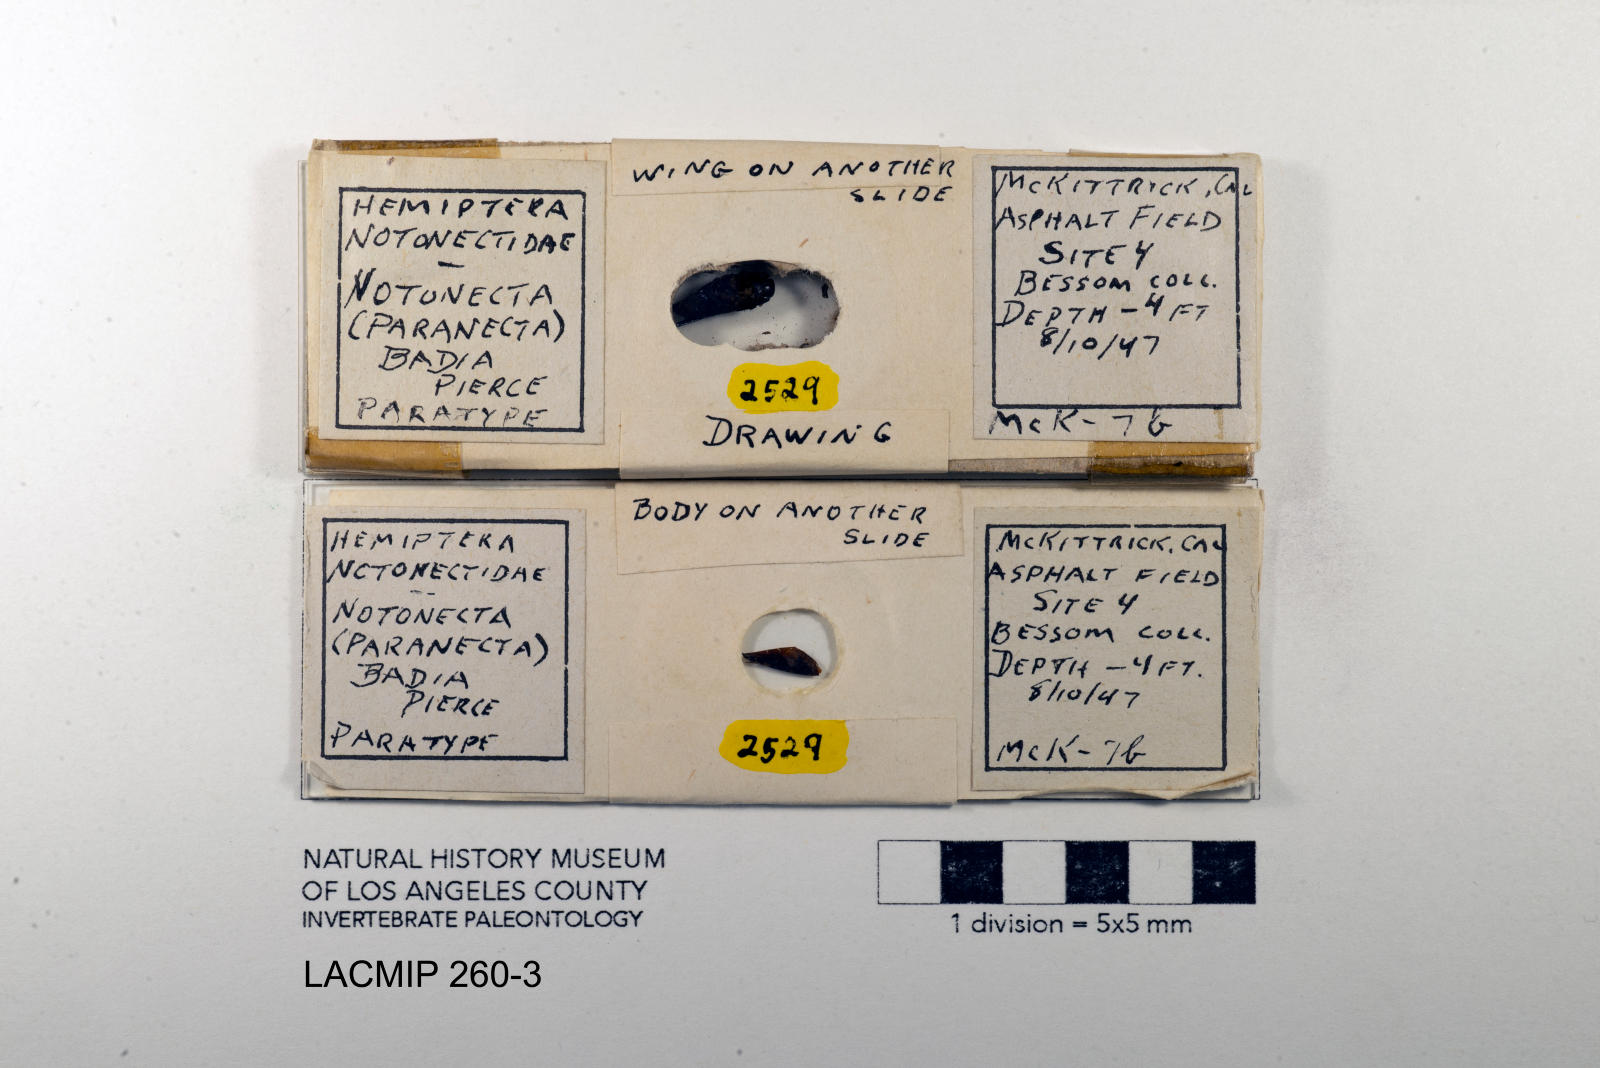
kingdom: Animalia
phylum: Arthropoda
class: Insecta
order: Hemiptera
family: Notonectidae
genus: Notonecta
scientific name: Notonecta unifasciata
